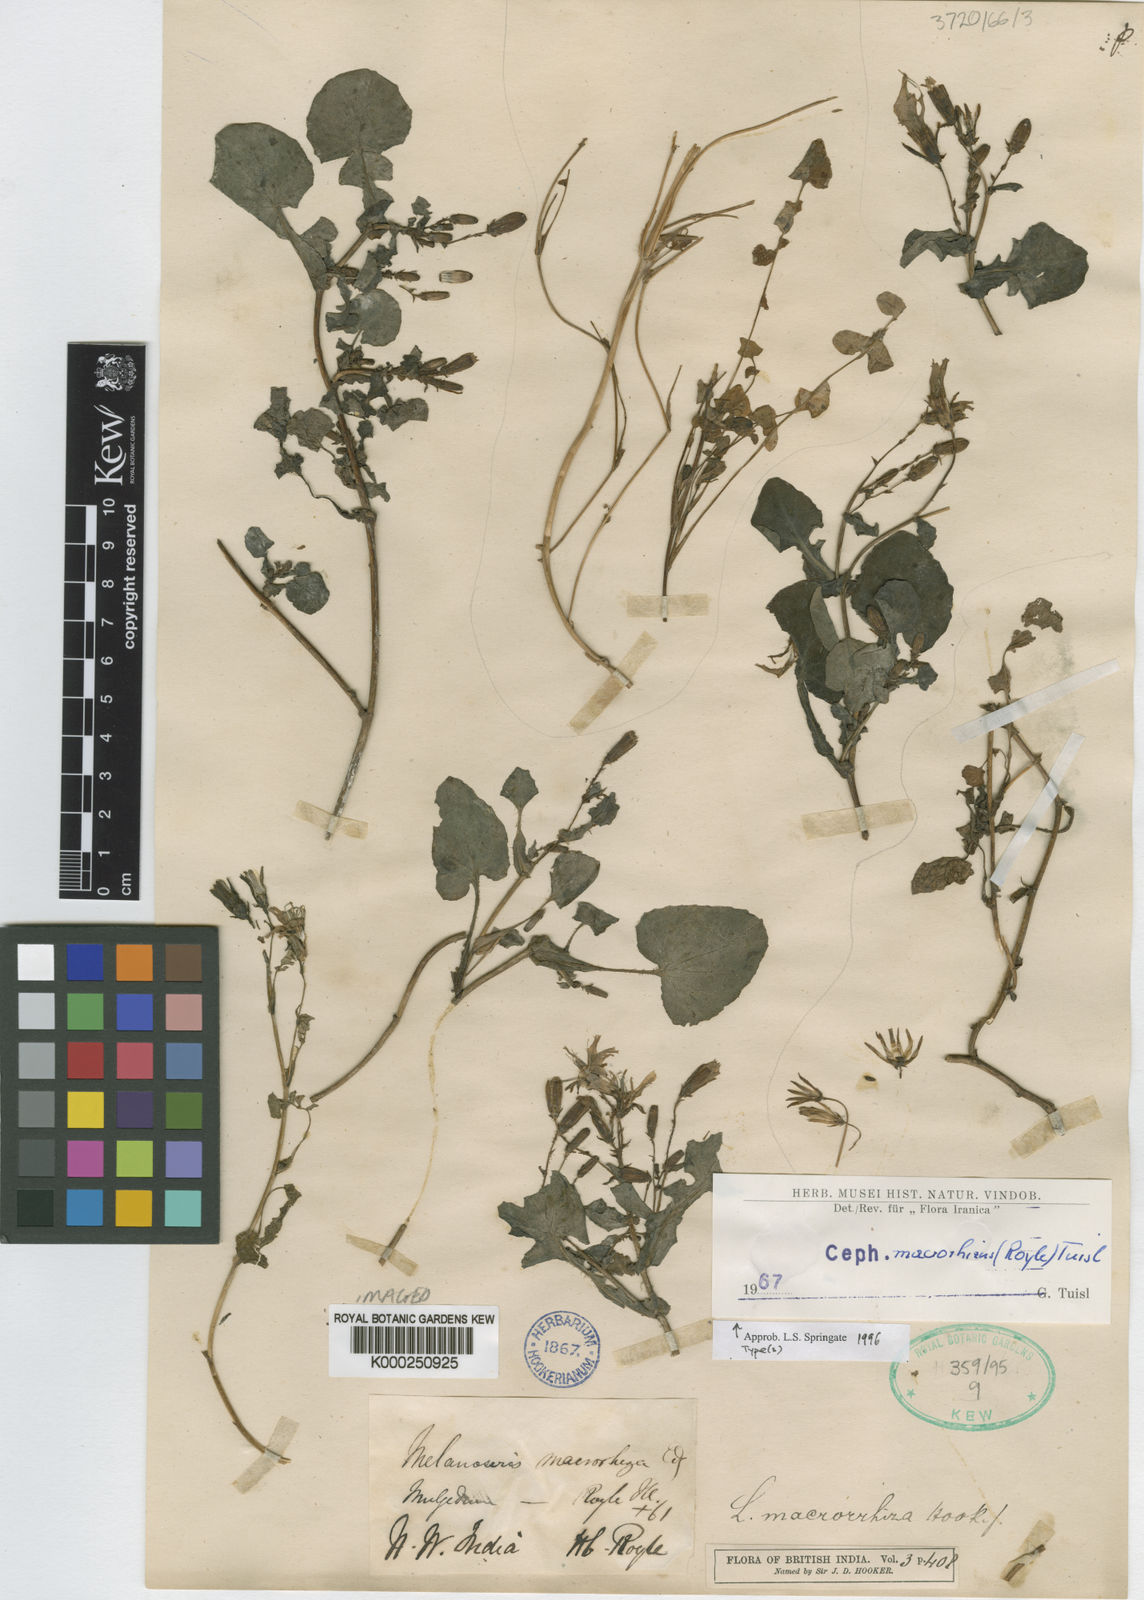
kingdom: Plantae
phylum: Tracheophyta
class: Magnoliopsida
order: Asterales
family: Asteraceae
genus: Melanoseris
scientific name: Melanoseris macrorhiza
